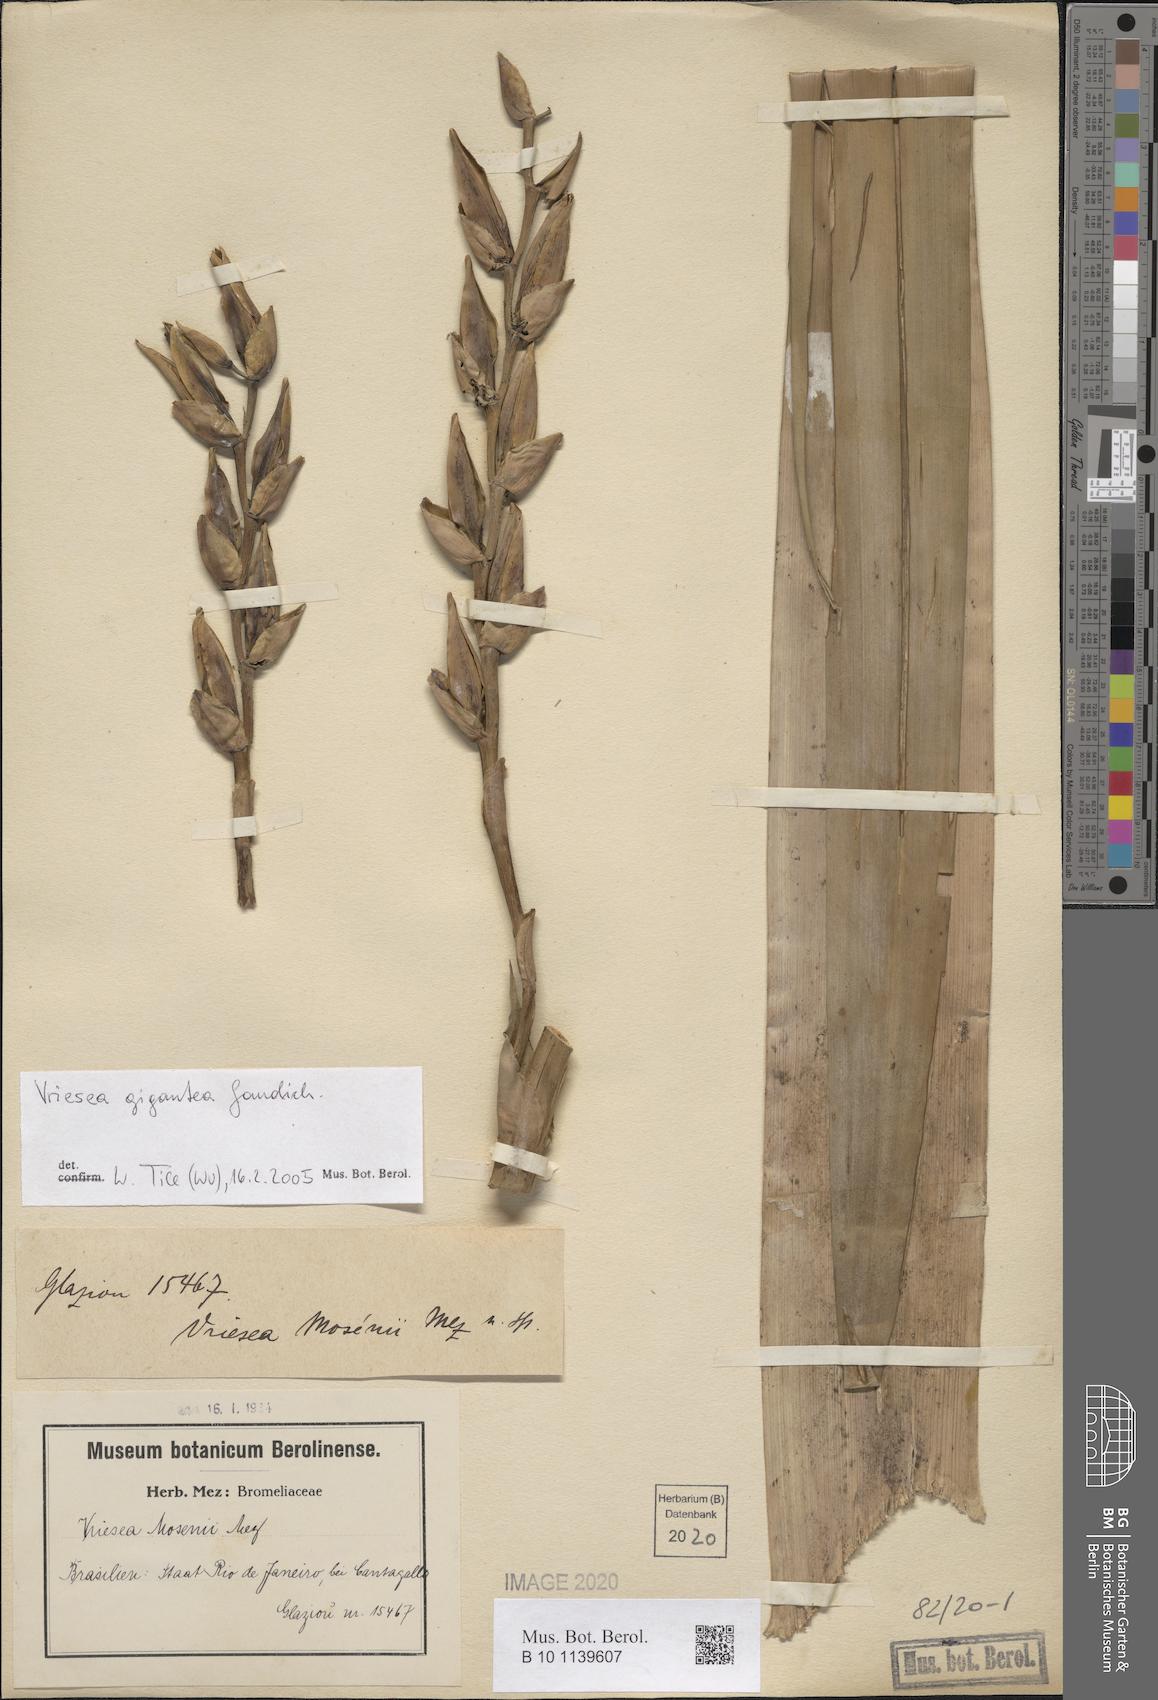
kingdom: Plantae
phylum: Tracheophyta
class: Liliopsida
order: Poales
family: Bromeliaceae
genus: Vriesea
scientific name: Vriesea gigantea
